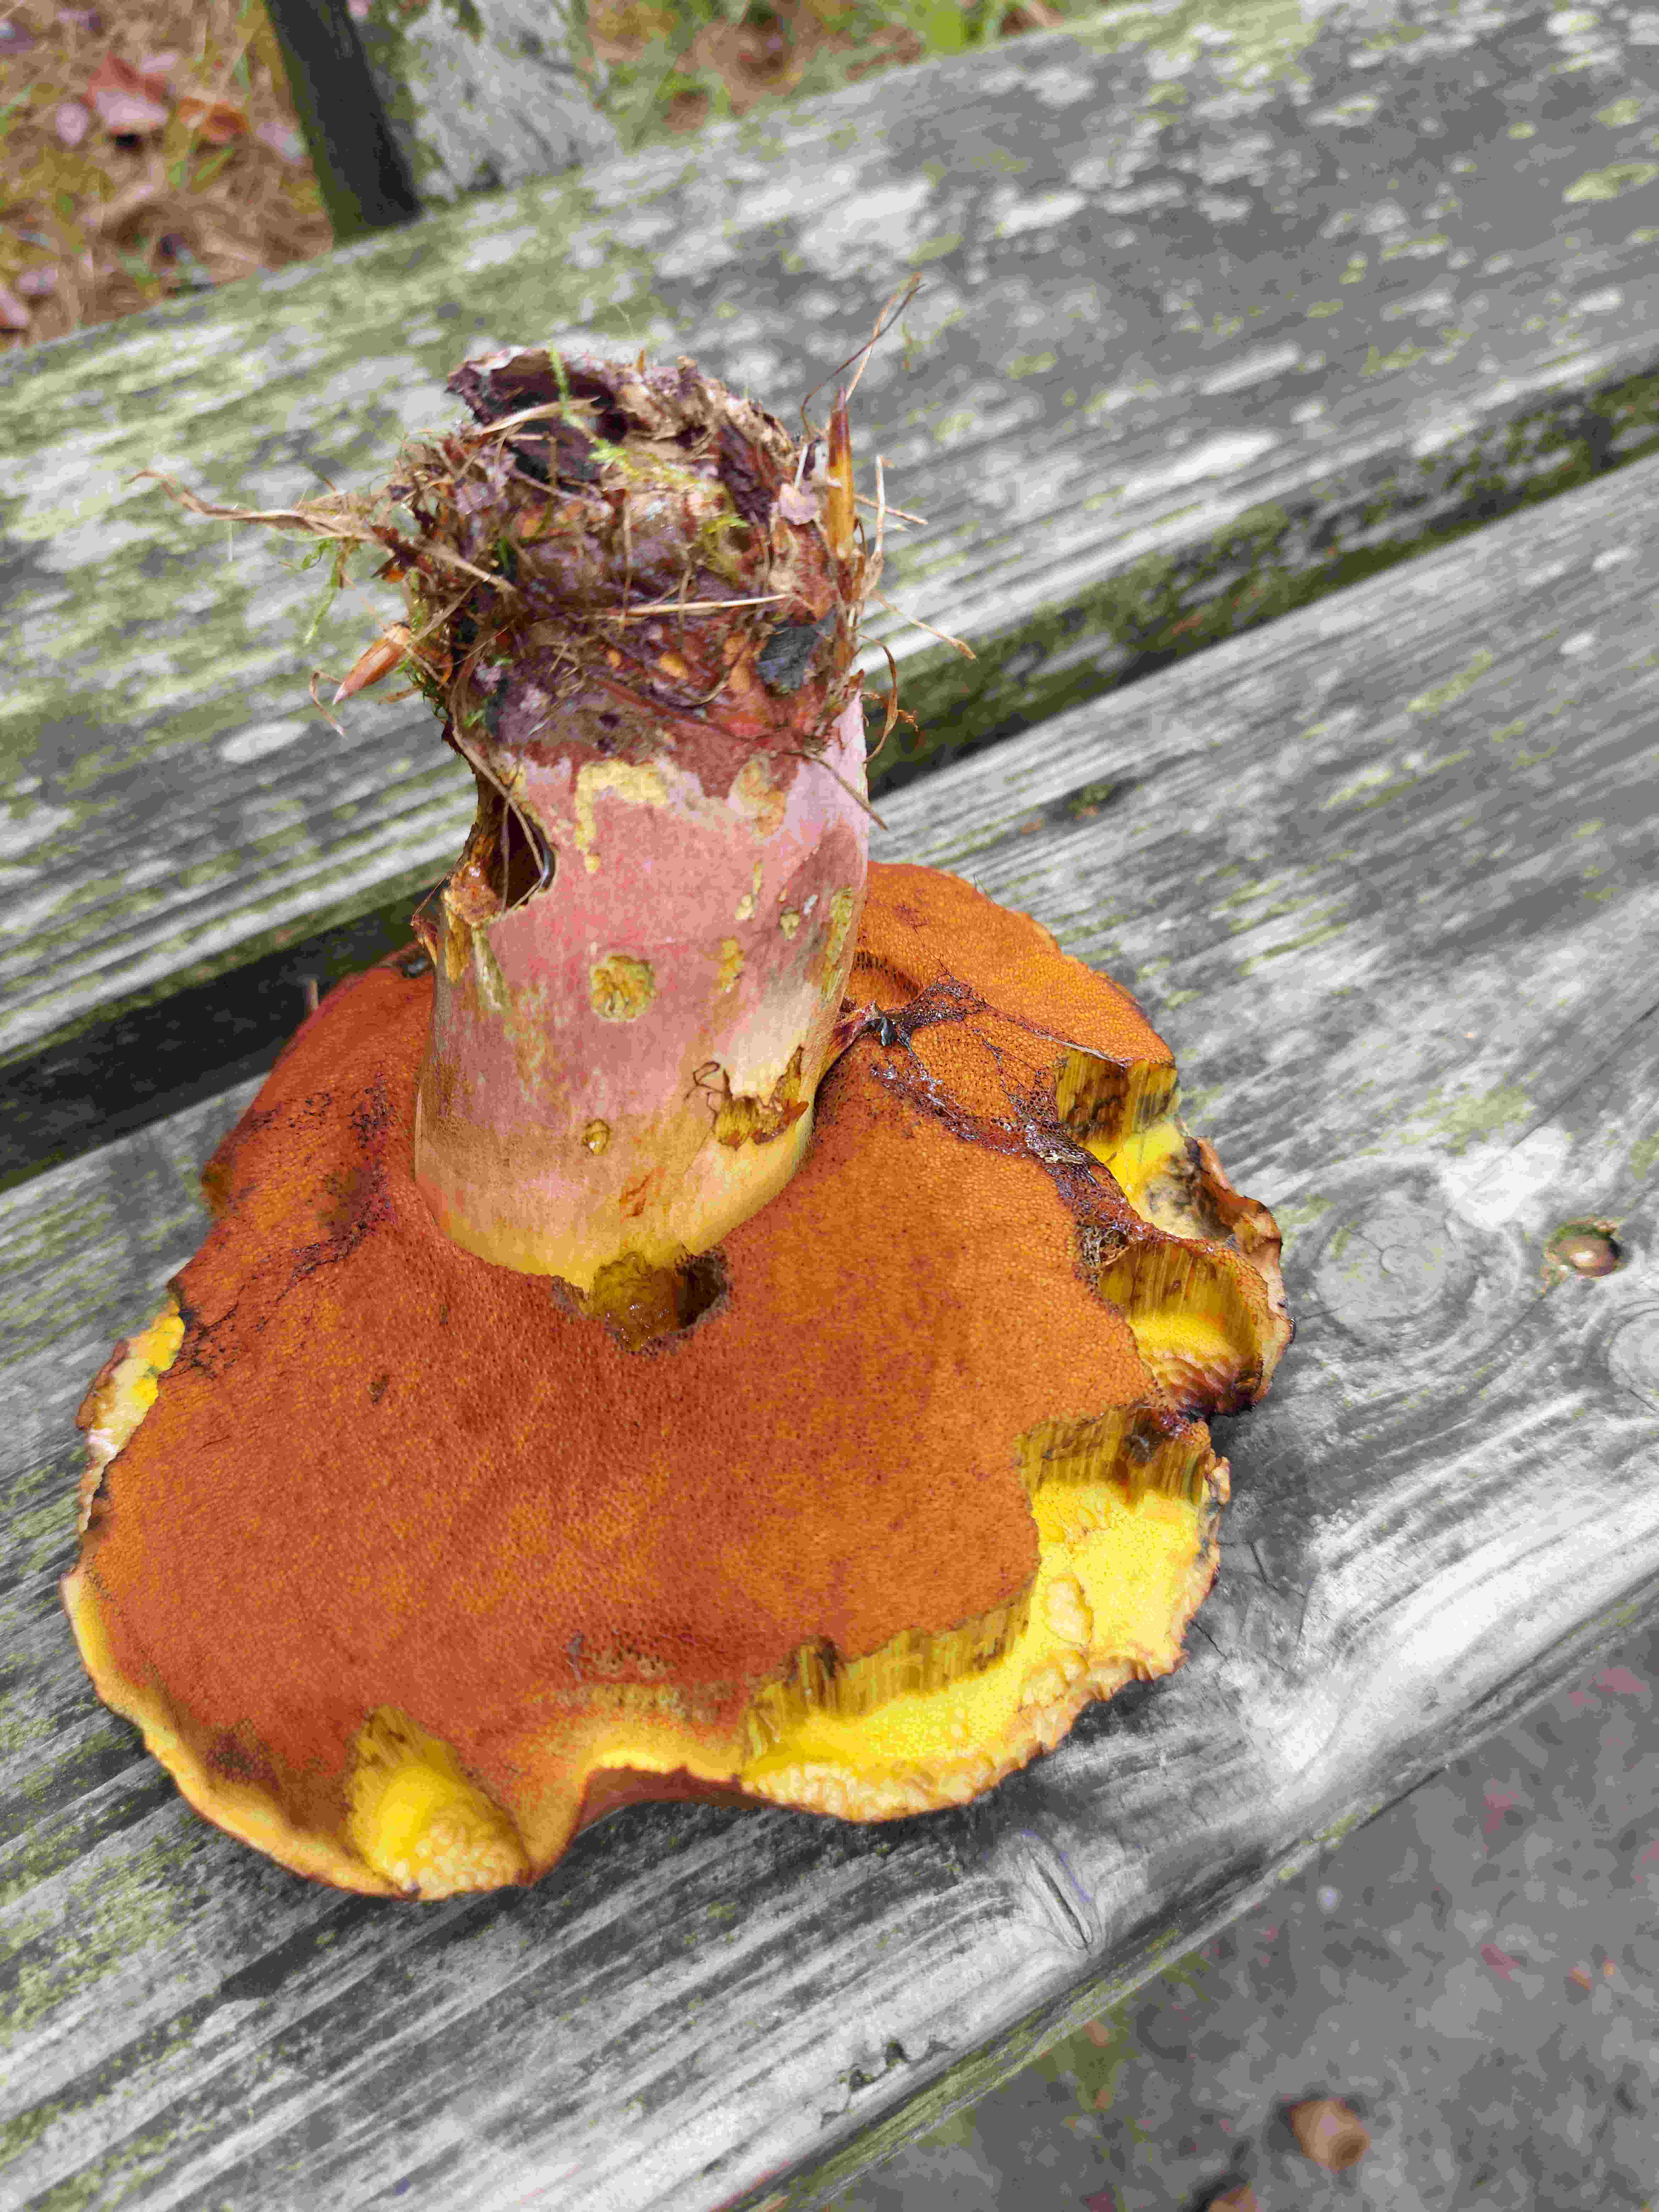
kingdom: Fungi
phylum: Basidiomycota
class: Agaricomycetes
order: Boletales
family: Boletaceae
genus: Neoboletus
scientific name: Neoboletus xanthopus
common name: finprikket indigorørhat
